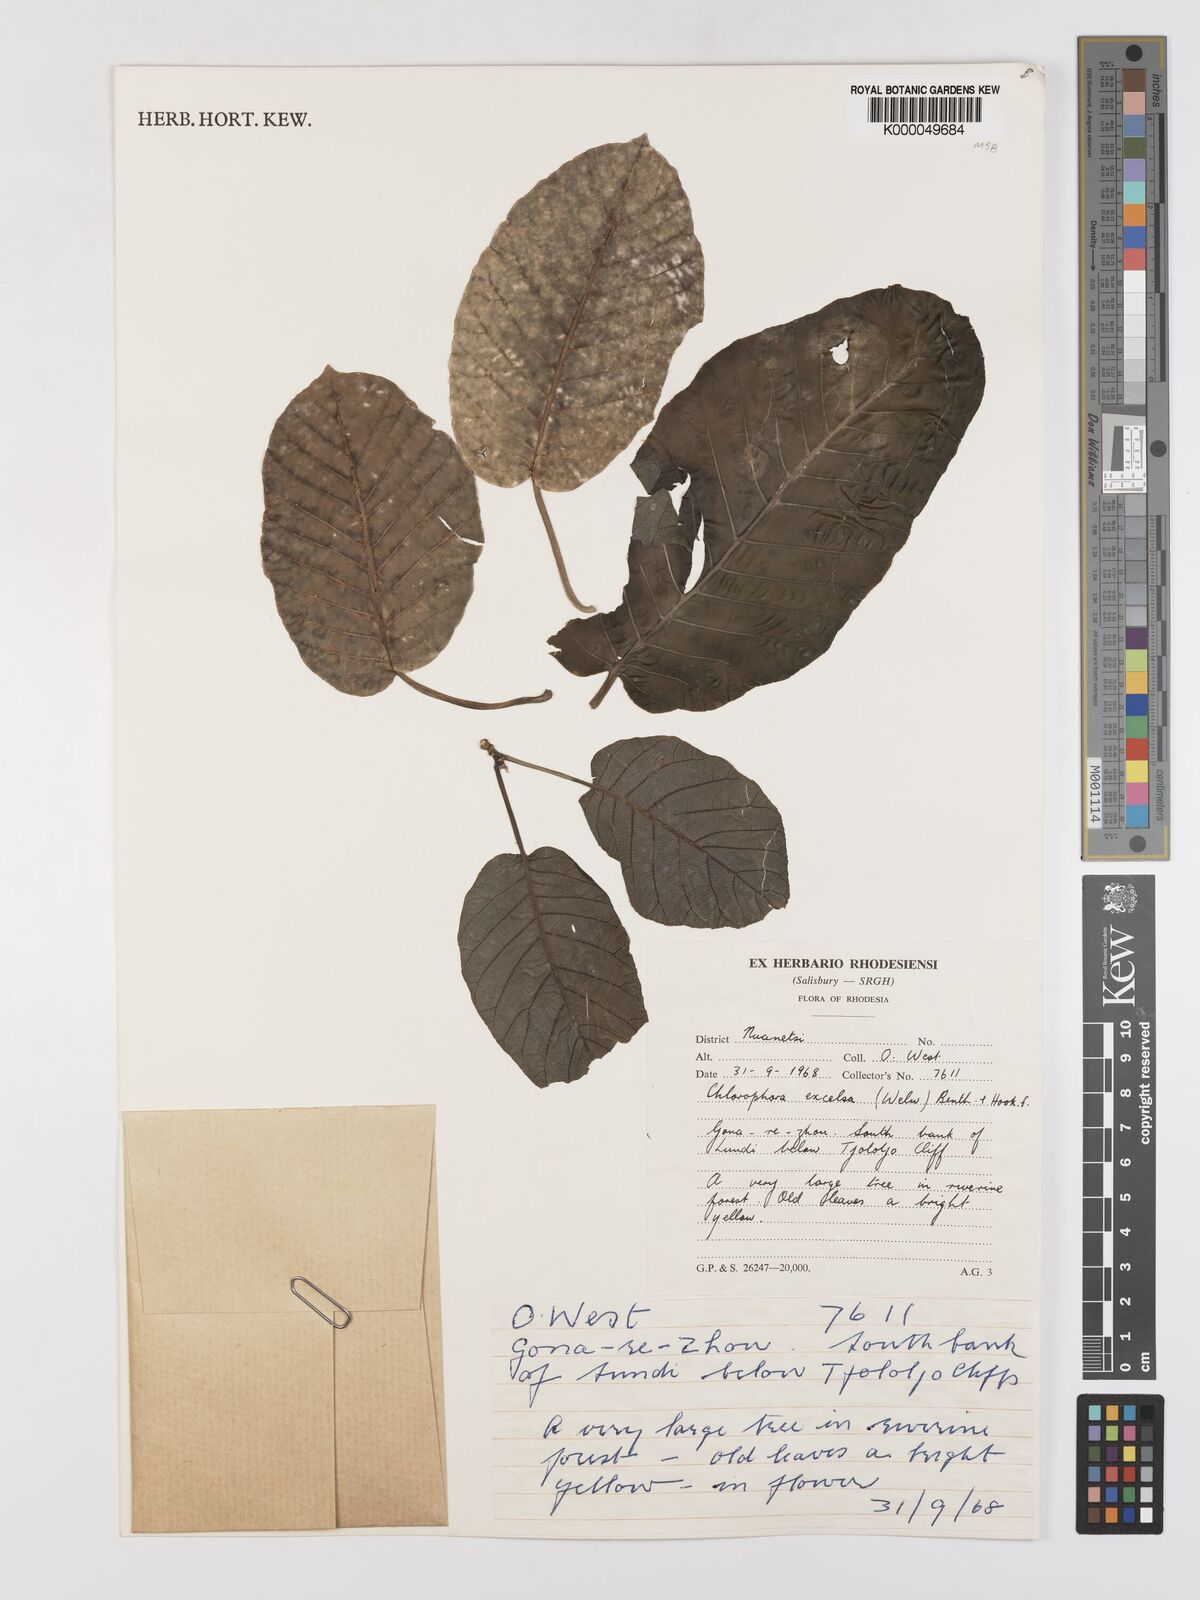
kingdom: Plantae
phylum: Tracheophyta
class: Magnoliopsida
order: Rosales
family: Moraceae
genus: Milicia
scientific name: Milicia excelsa
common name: African teak
